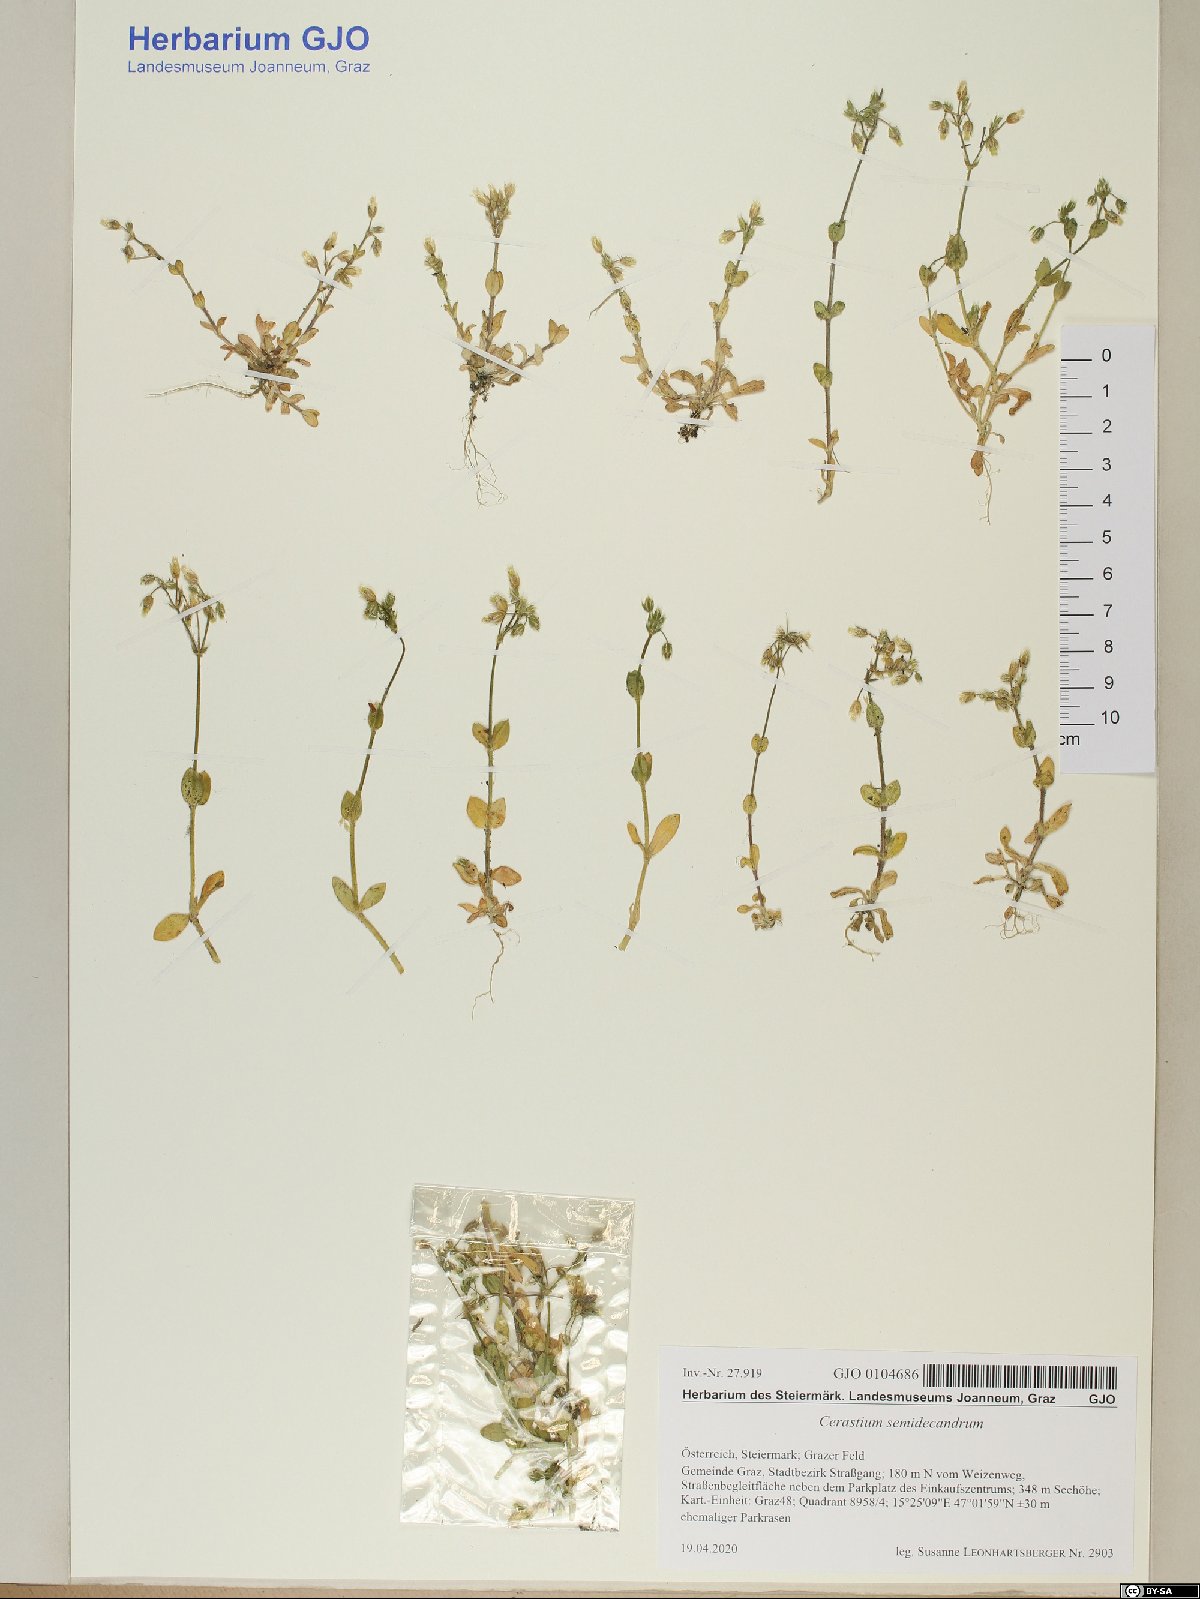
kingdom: Plantae
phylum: Tracheophyta
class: Magnoliopsida
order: Caryophyllales
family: Caryophyllaceae
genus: Cerastium
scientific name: Cerastium semidecandrum
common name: Little mouse-ear
